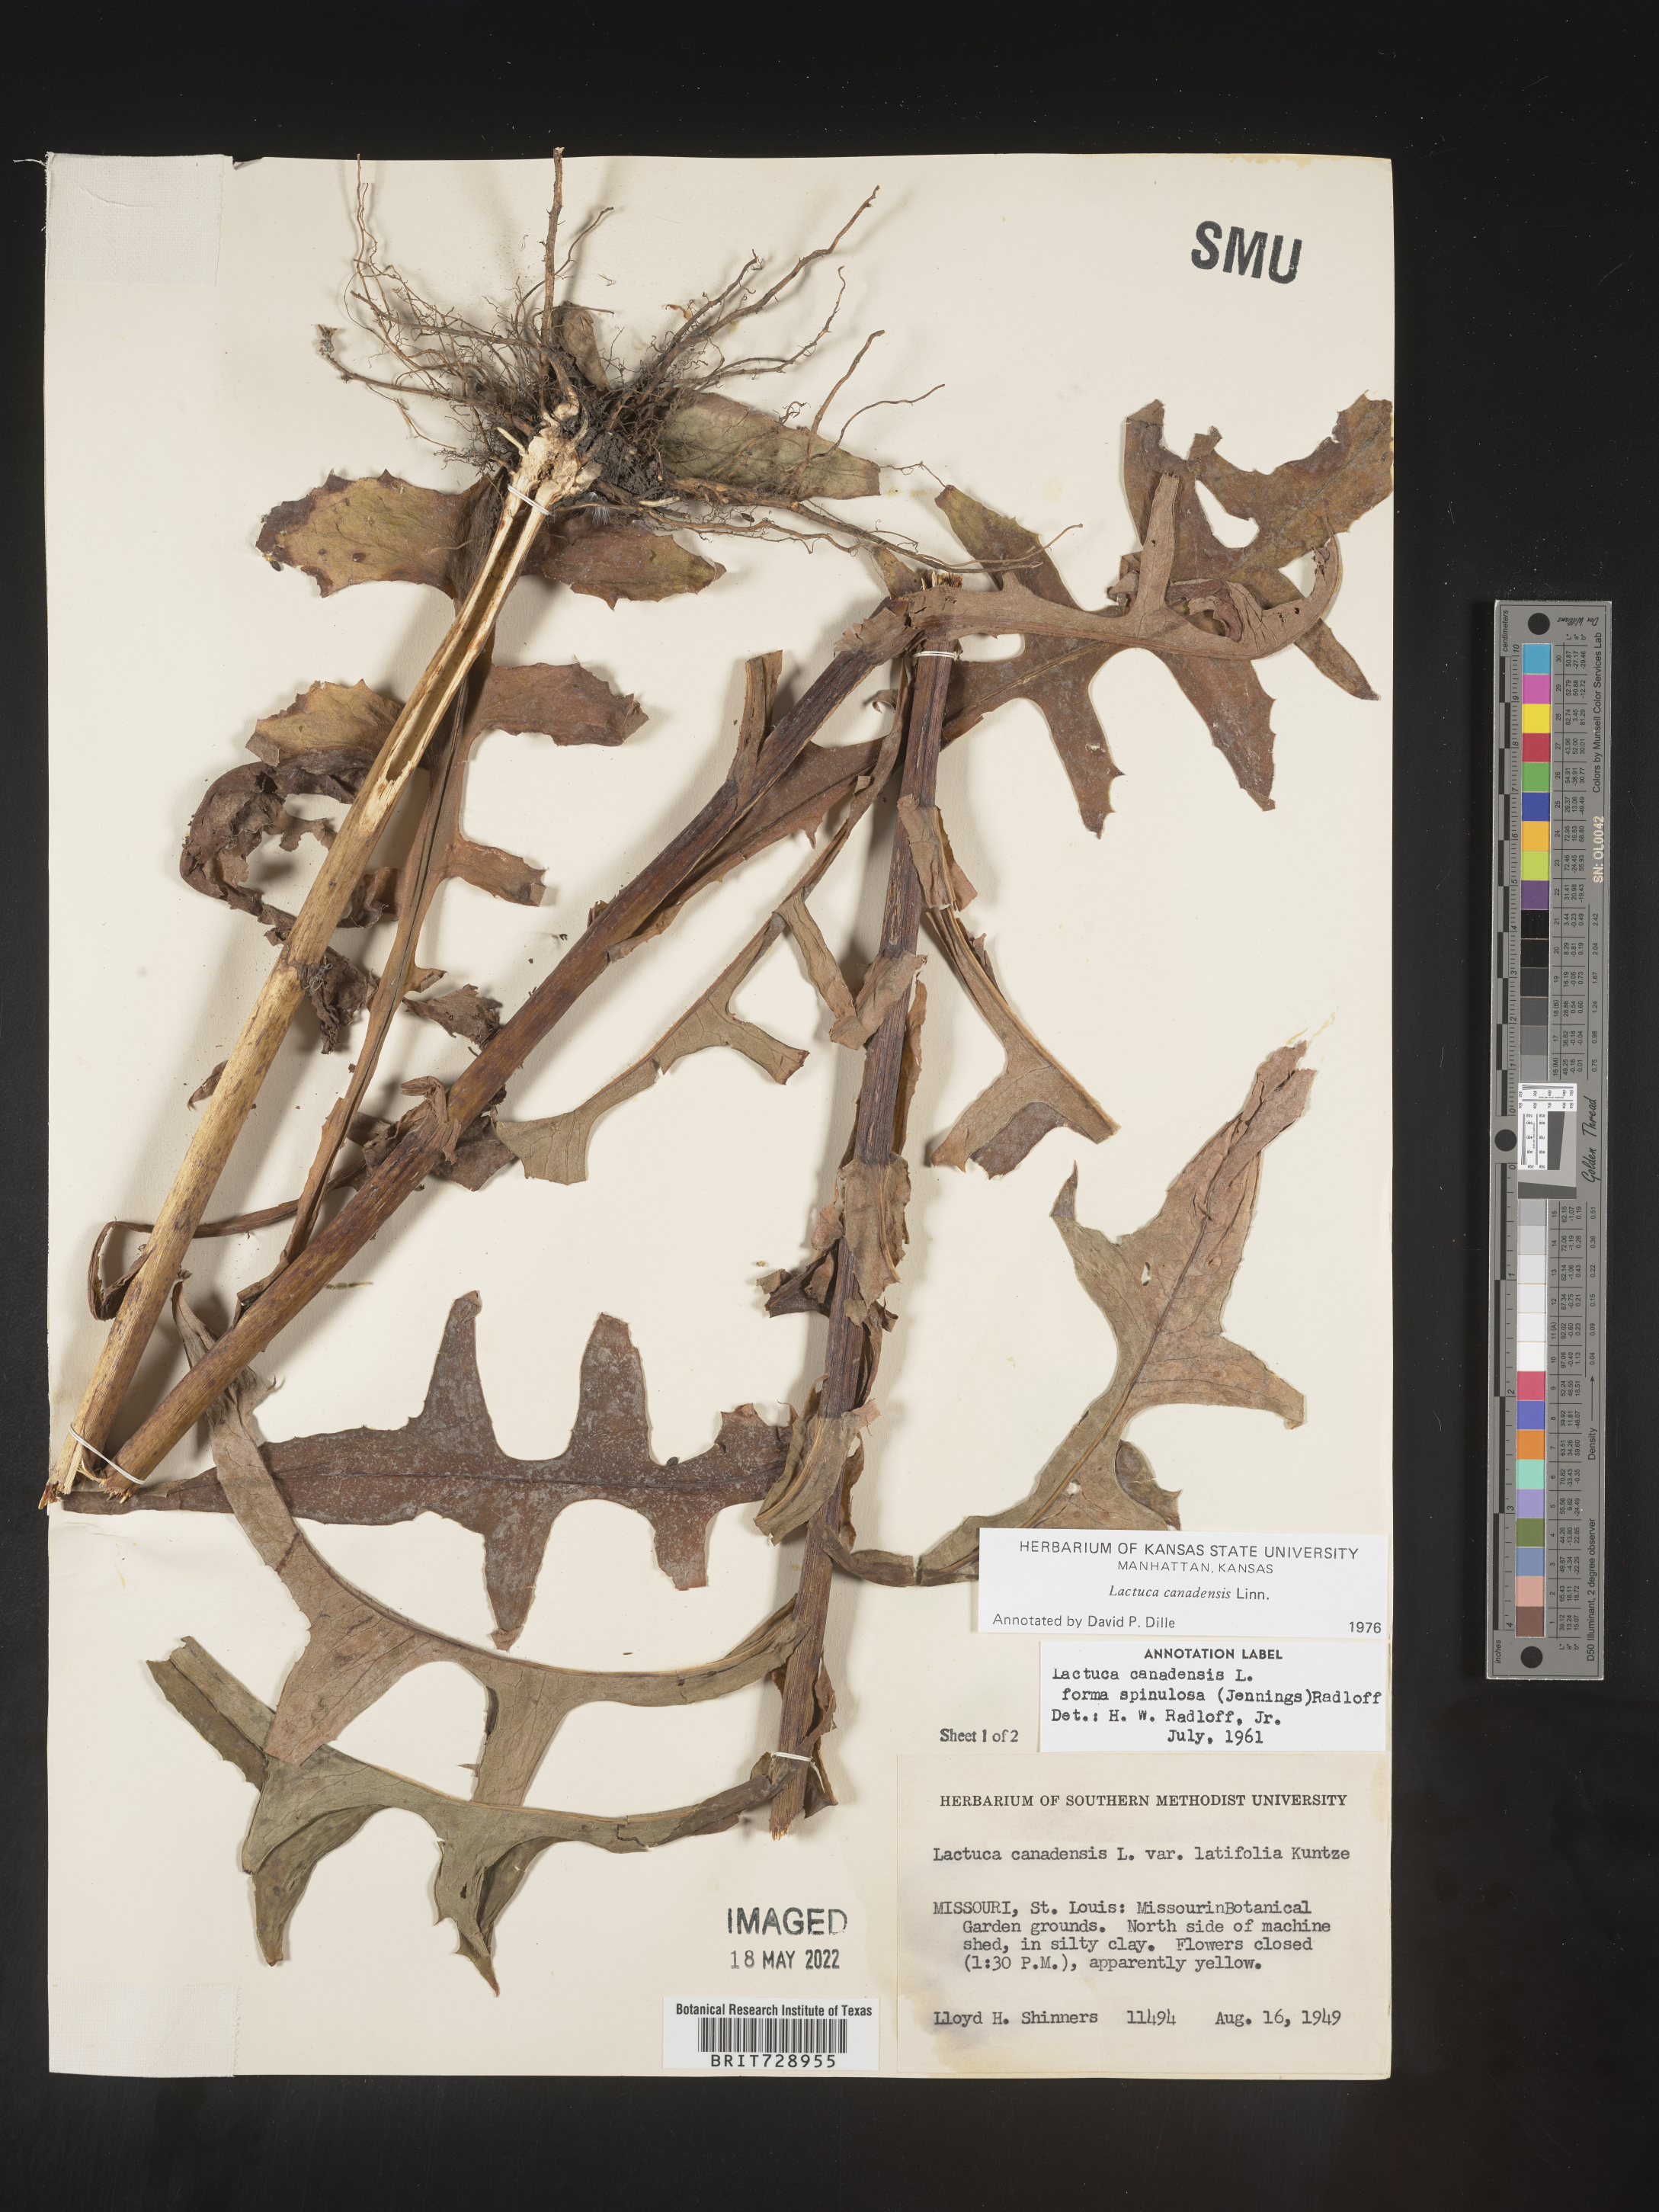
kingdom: Plantae
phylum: Tracheophyta
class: Magnoliopsida
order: Asterales
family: Asteraceae
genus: Lactuca
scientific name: Lactuca canadensis
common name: Canada lettuce
